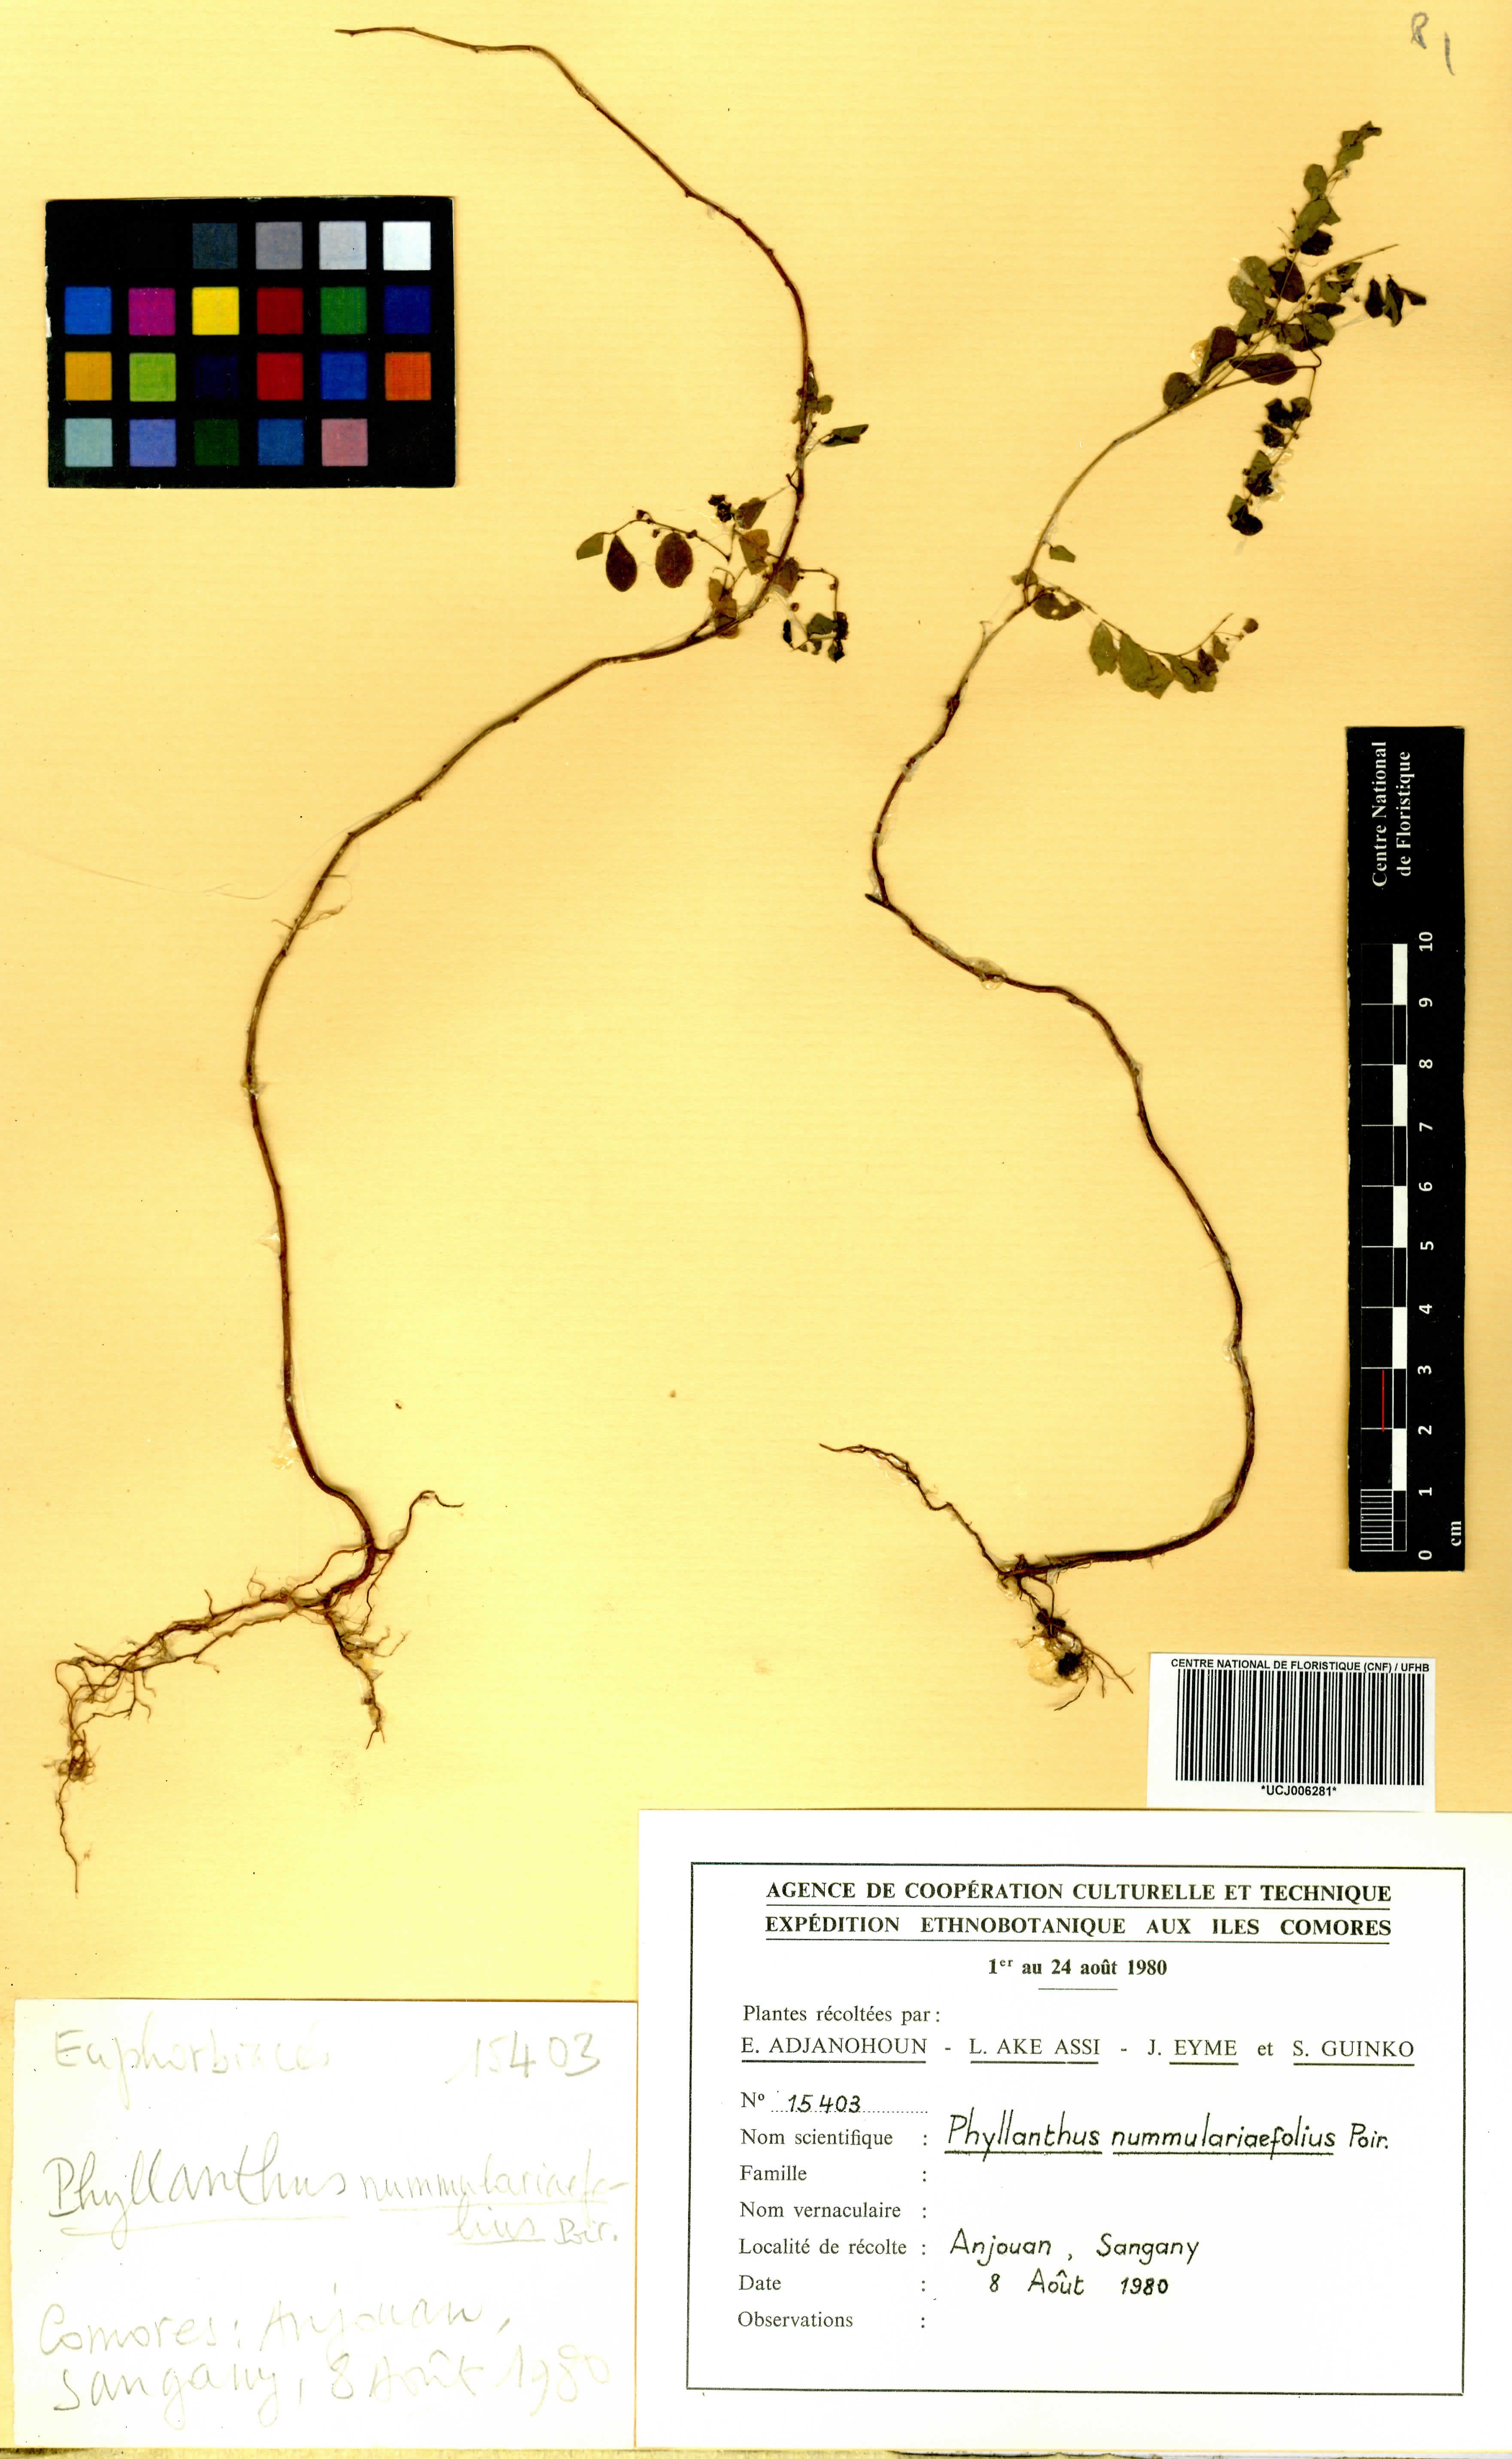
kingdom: Plantae
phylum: Tracheophyta
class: Magnoliopsida
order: Malpighiales
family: Phyllanthaceae
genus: Phyllanthus
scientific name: Phyllanthus nummulariifolius
